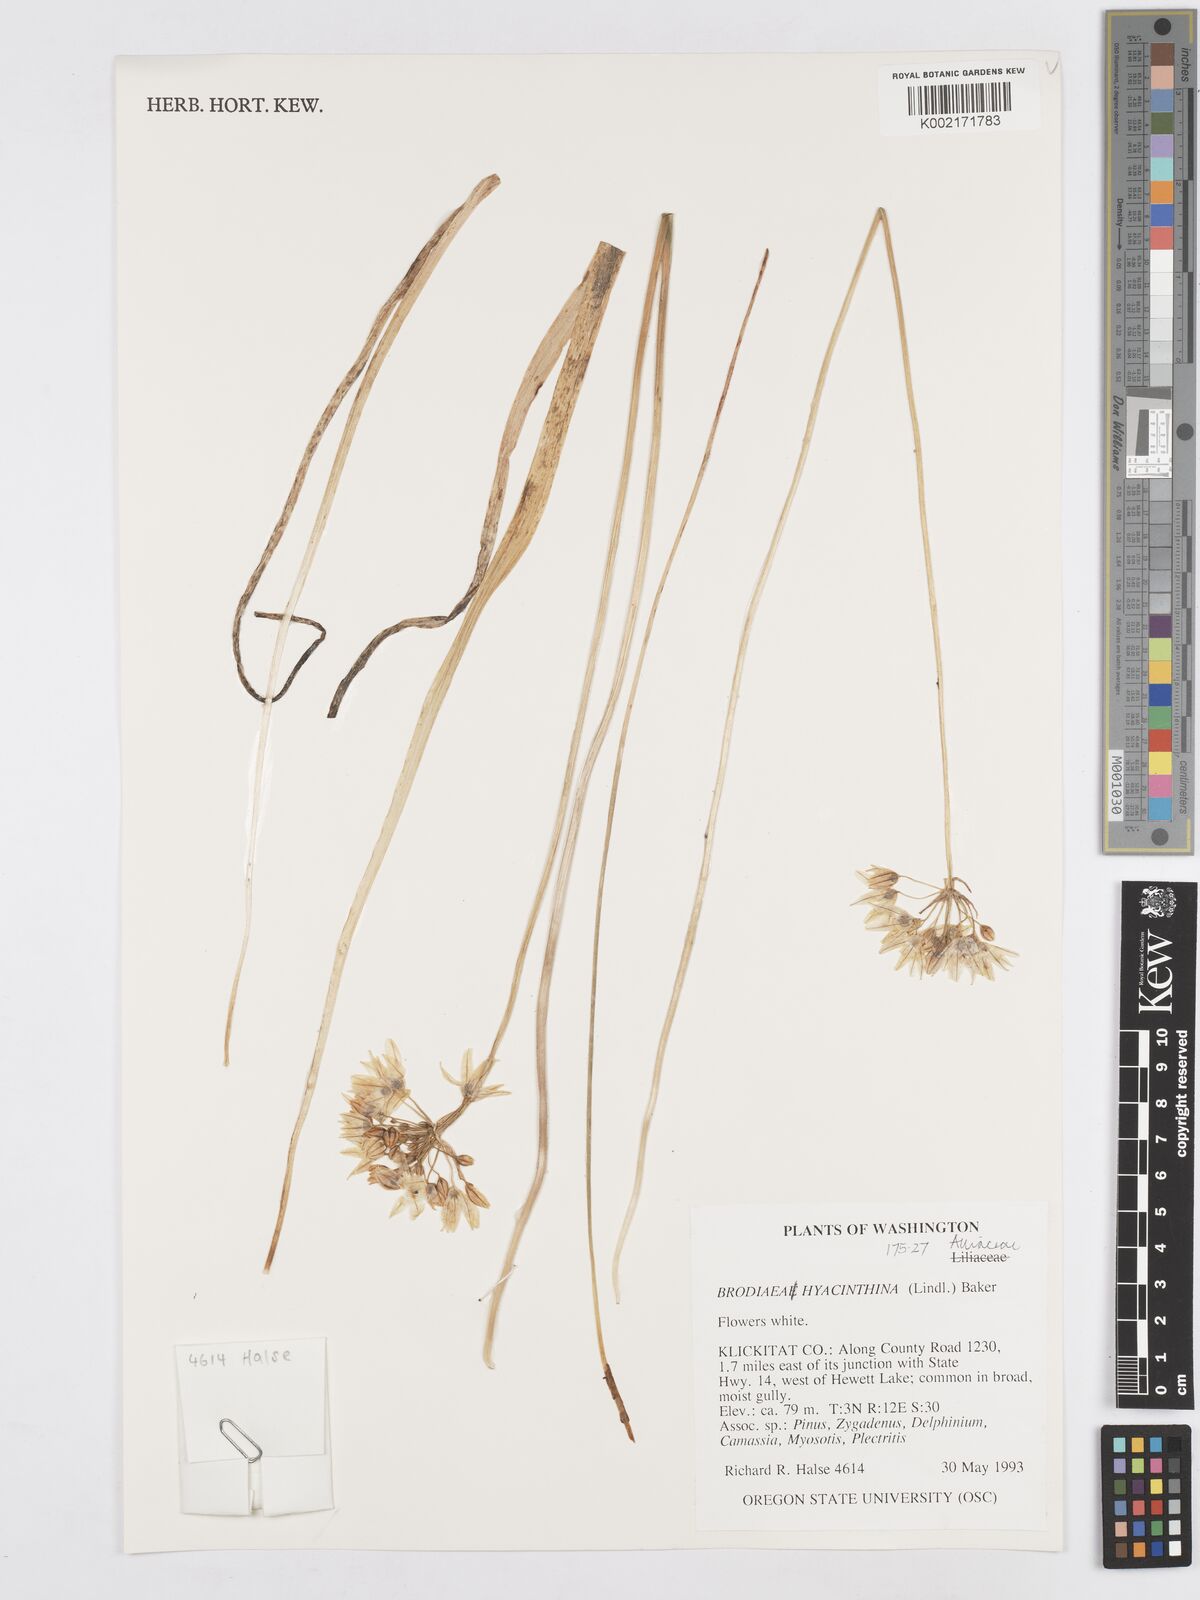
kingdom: Plantae
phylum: Tracheophyta
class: Liliopsida
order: Asparagales
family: Asparagaceae
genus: Triteleia
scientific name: Triteleia hyacinthina
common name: White brodiaea
